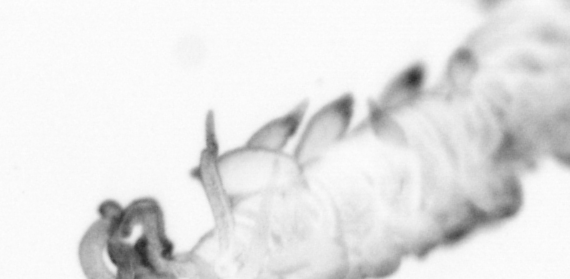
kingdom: Animalia
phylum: Annelida
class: Polychaeta
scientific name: Polychaeta
